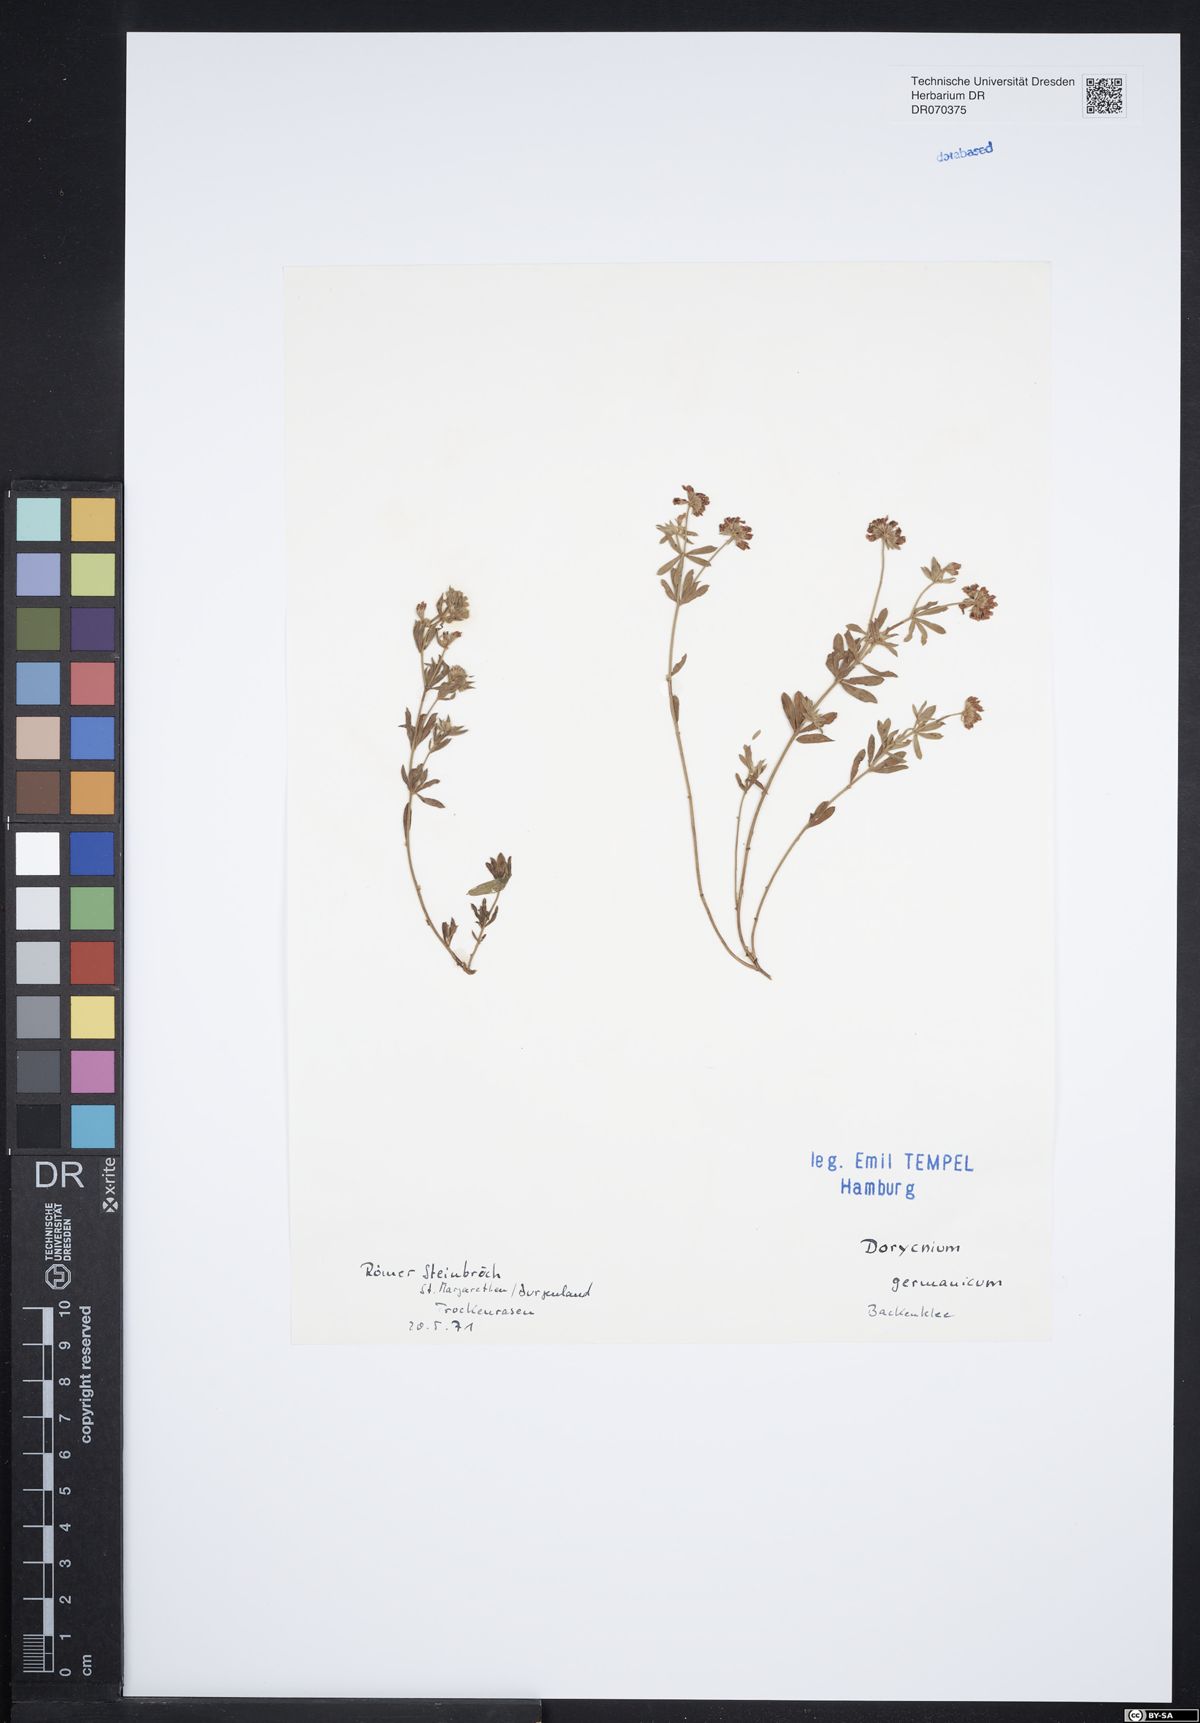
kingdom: Plantae
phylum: Tracheophyta
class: Magnoliopsida
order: Fabales
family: Fabaceae
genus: Lotus
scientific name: Lotus germanicus
